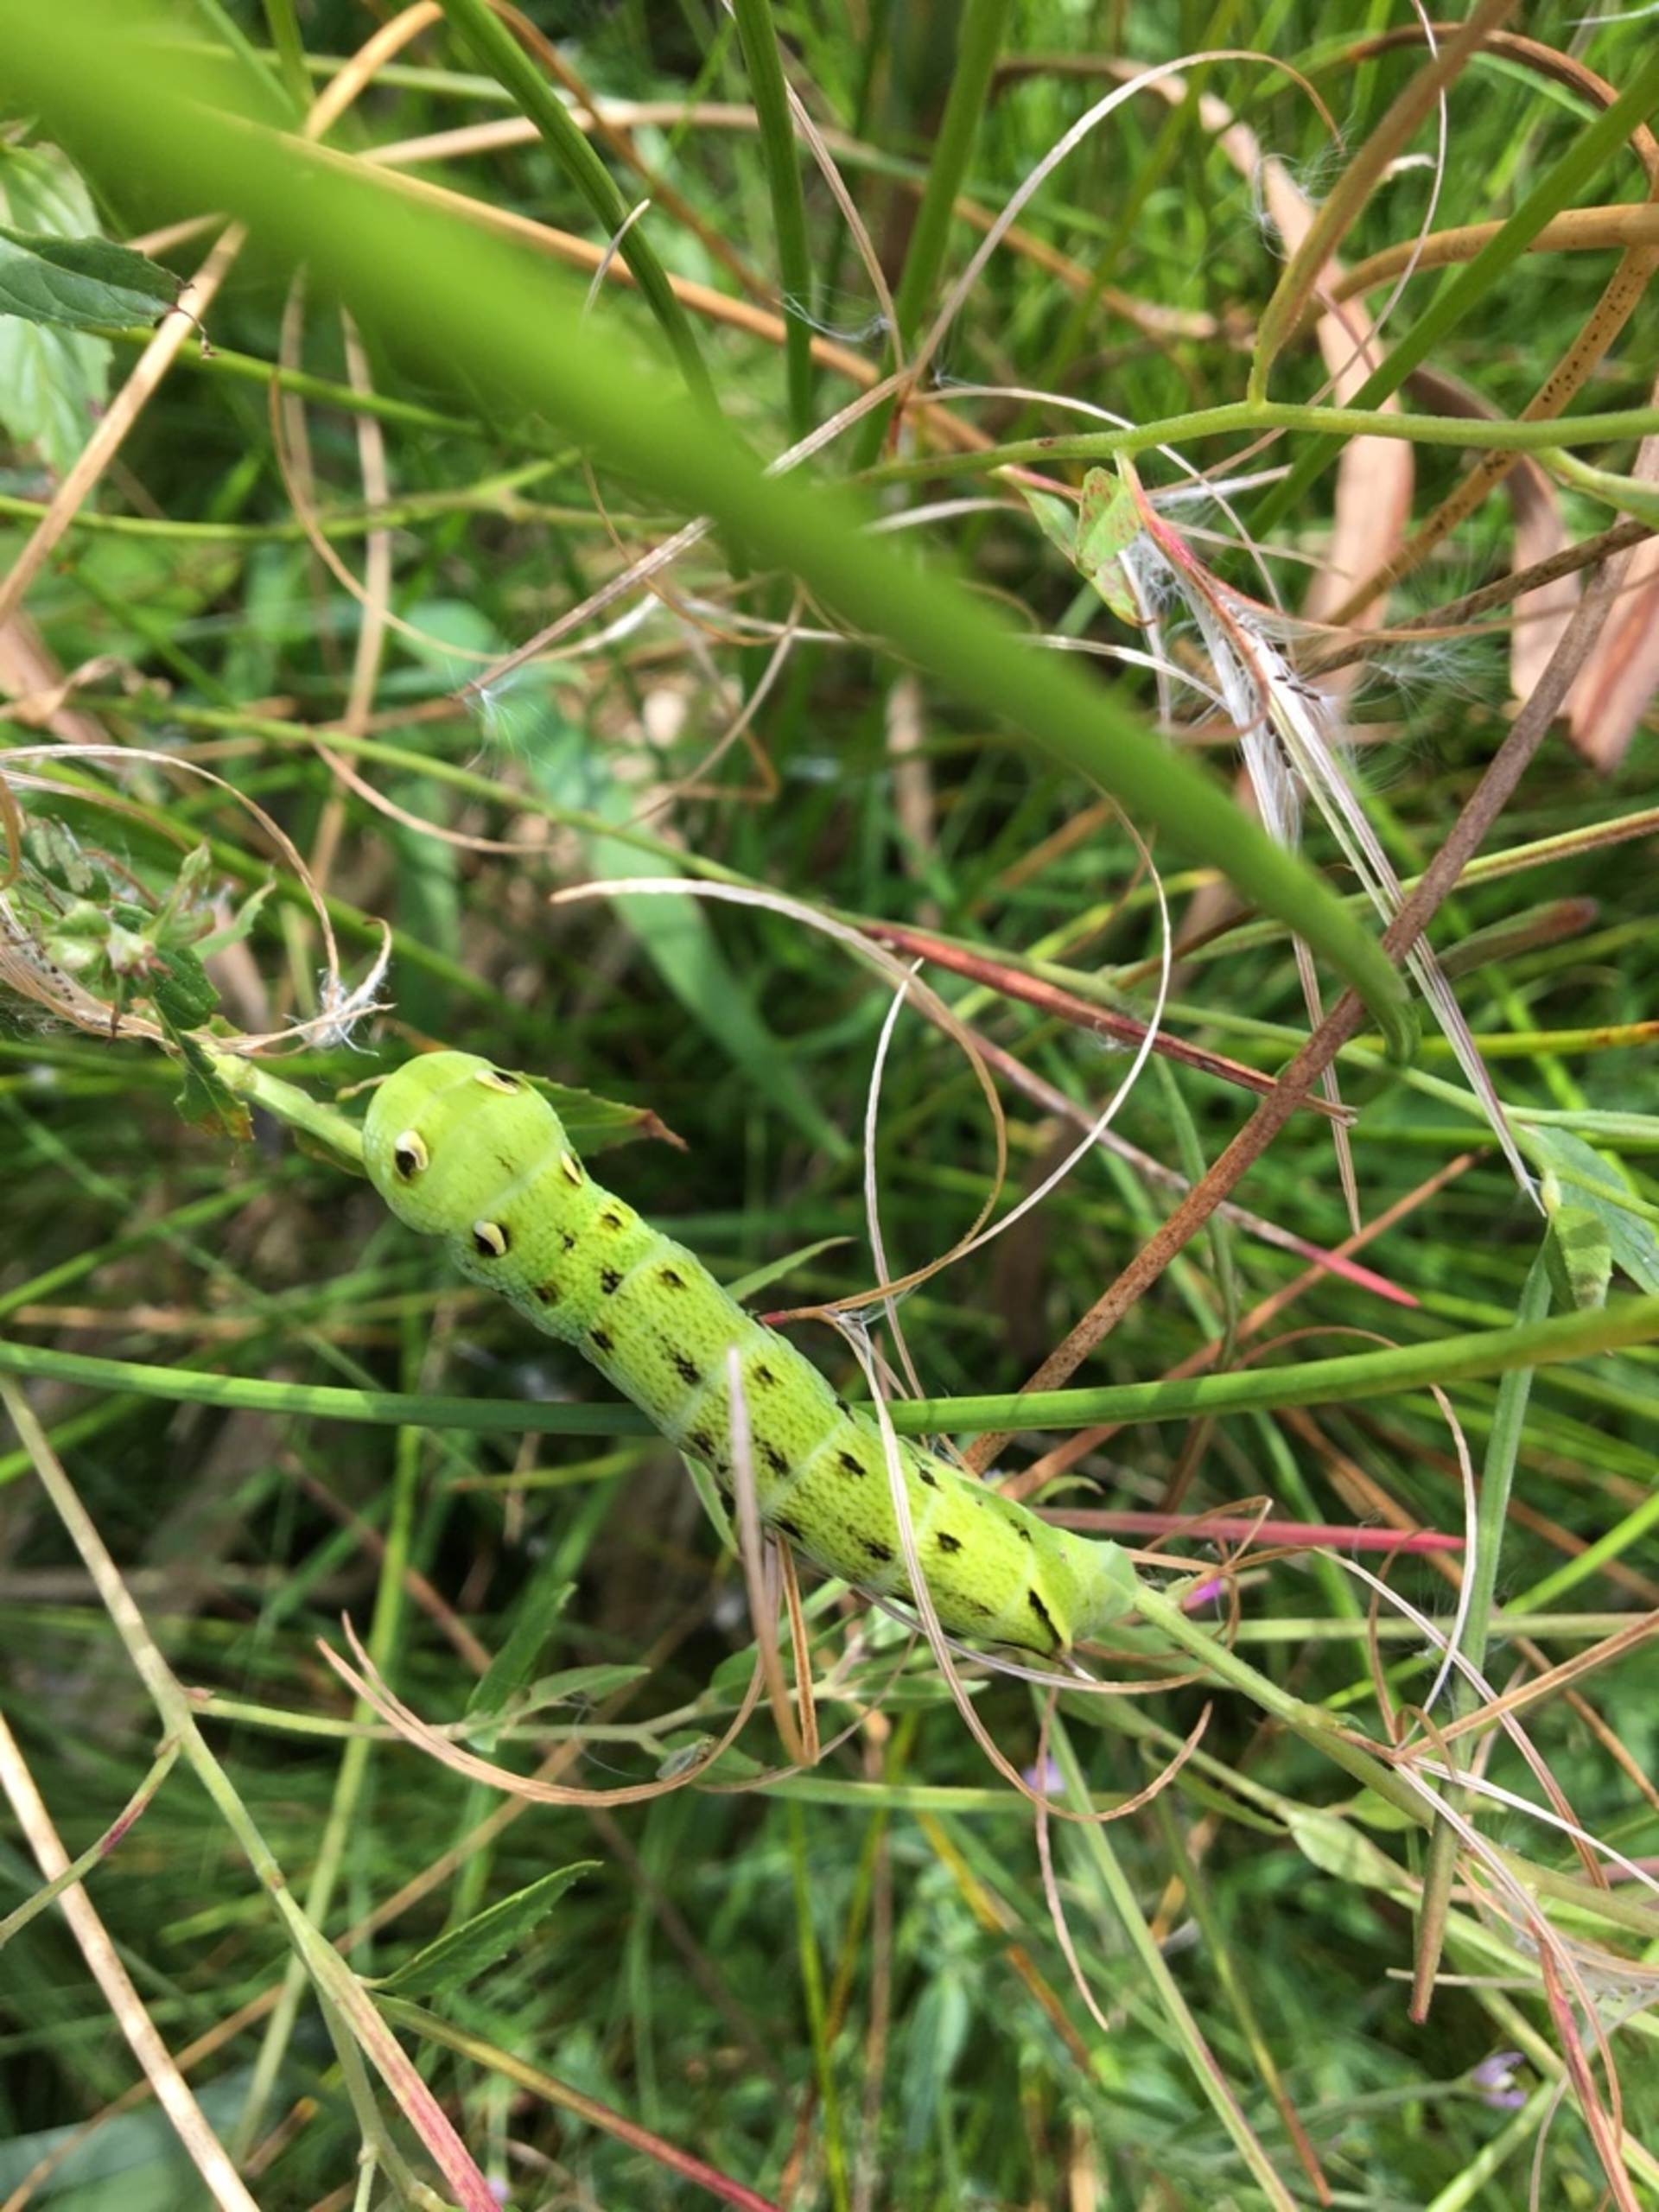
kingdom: Animalia
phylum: Arthropoda
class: Insecta
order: Lepidoptera
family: Sphingidae
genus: Deilephila
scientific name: Deilephila elpenor
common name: Dueurtsværmer
